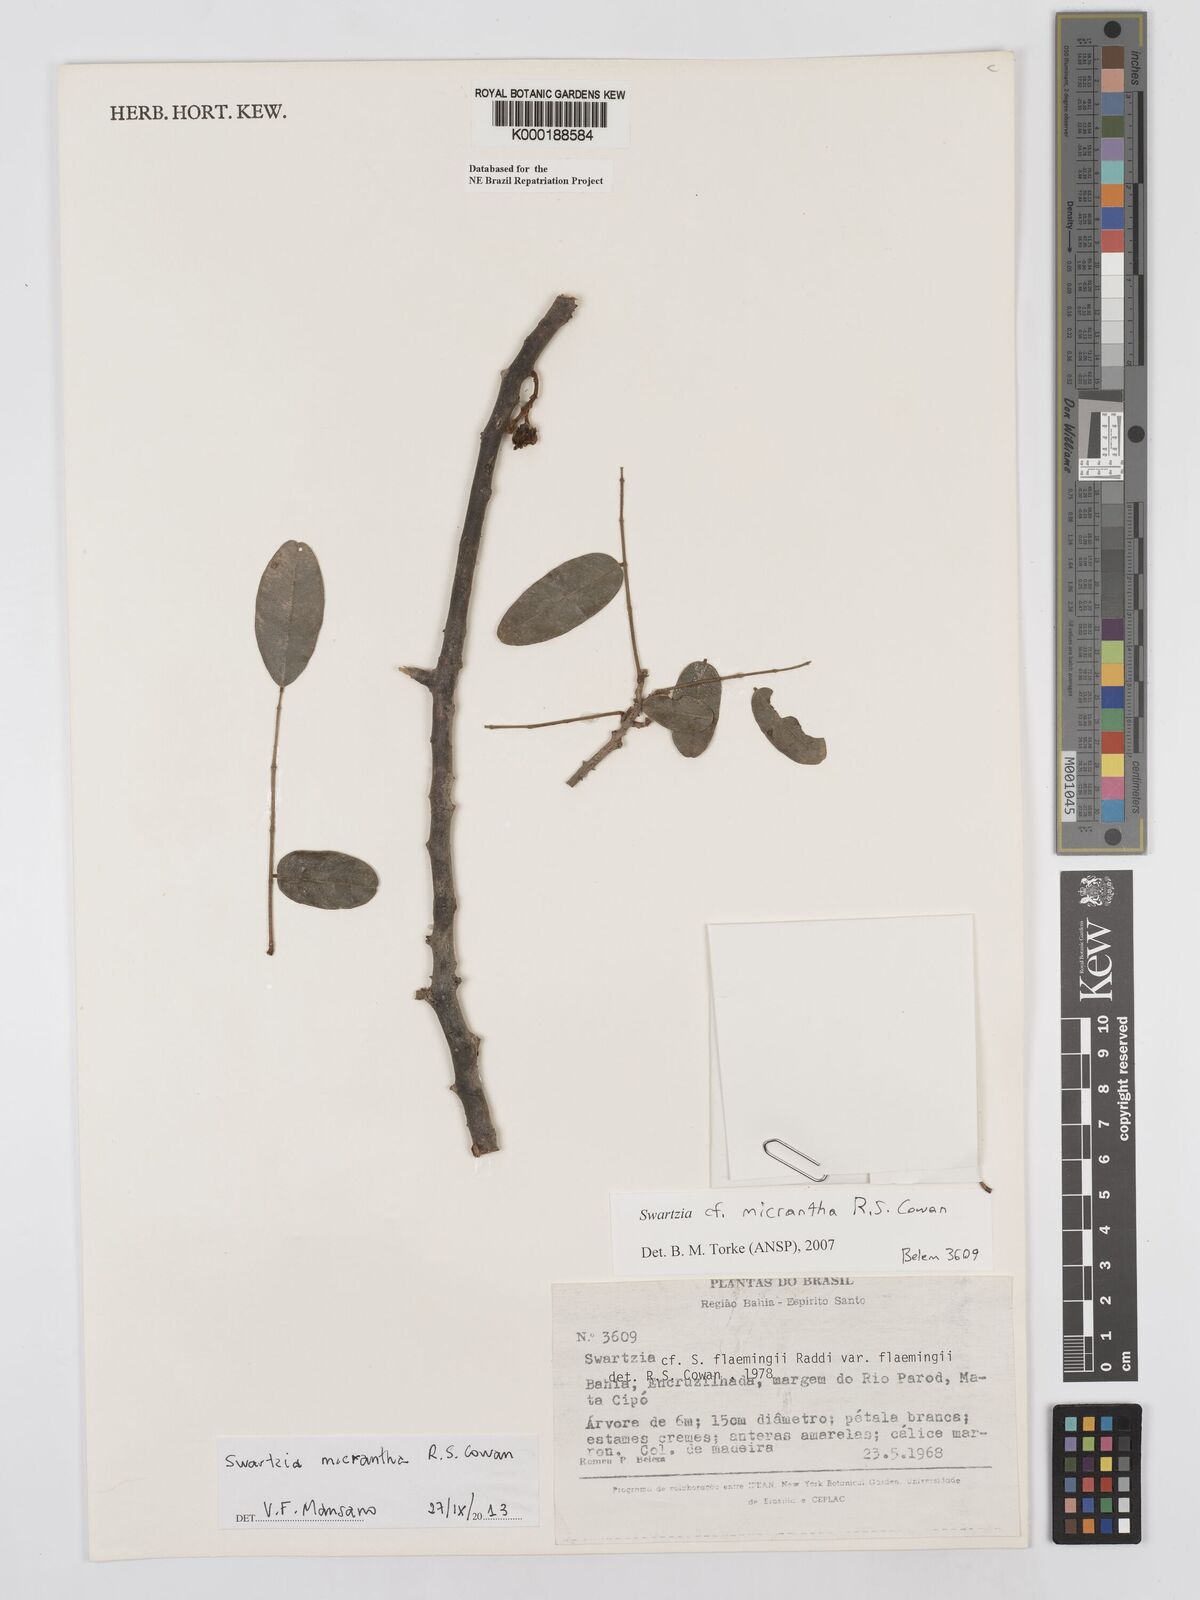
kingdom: Plantae
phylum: Tracheophyta
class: Magnoliopsida
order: Fabales
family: Fabaceae
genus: Swartzia
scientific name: Swartzia micrantha
